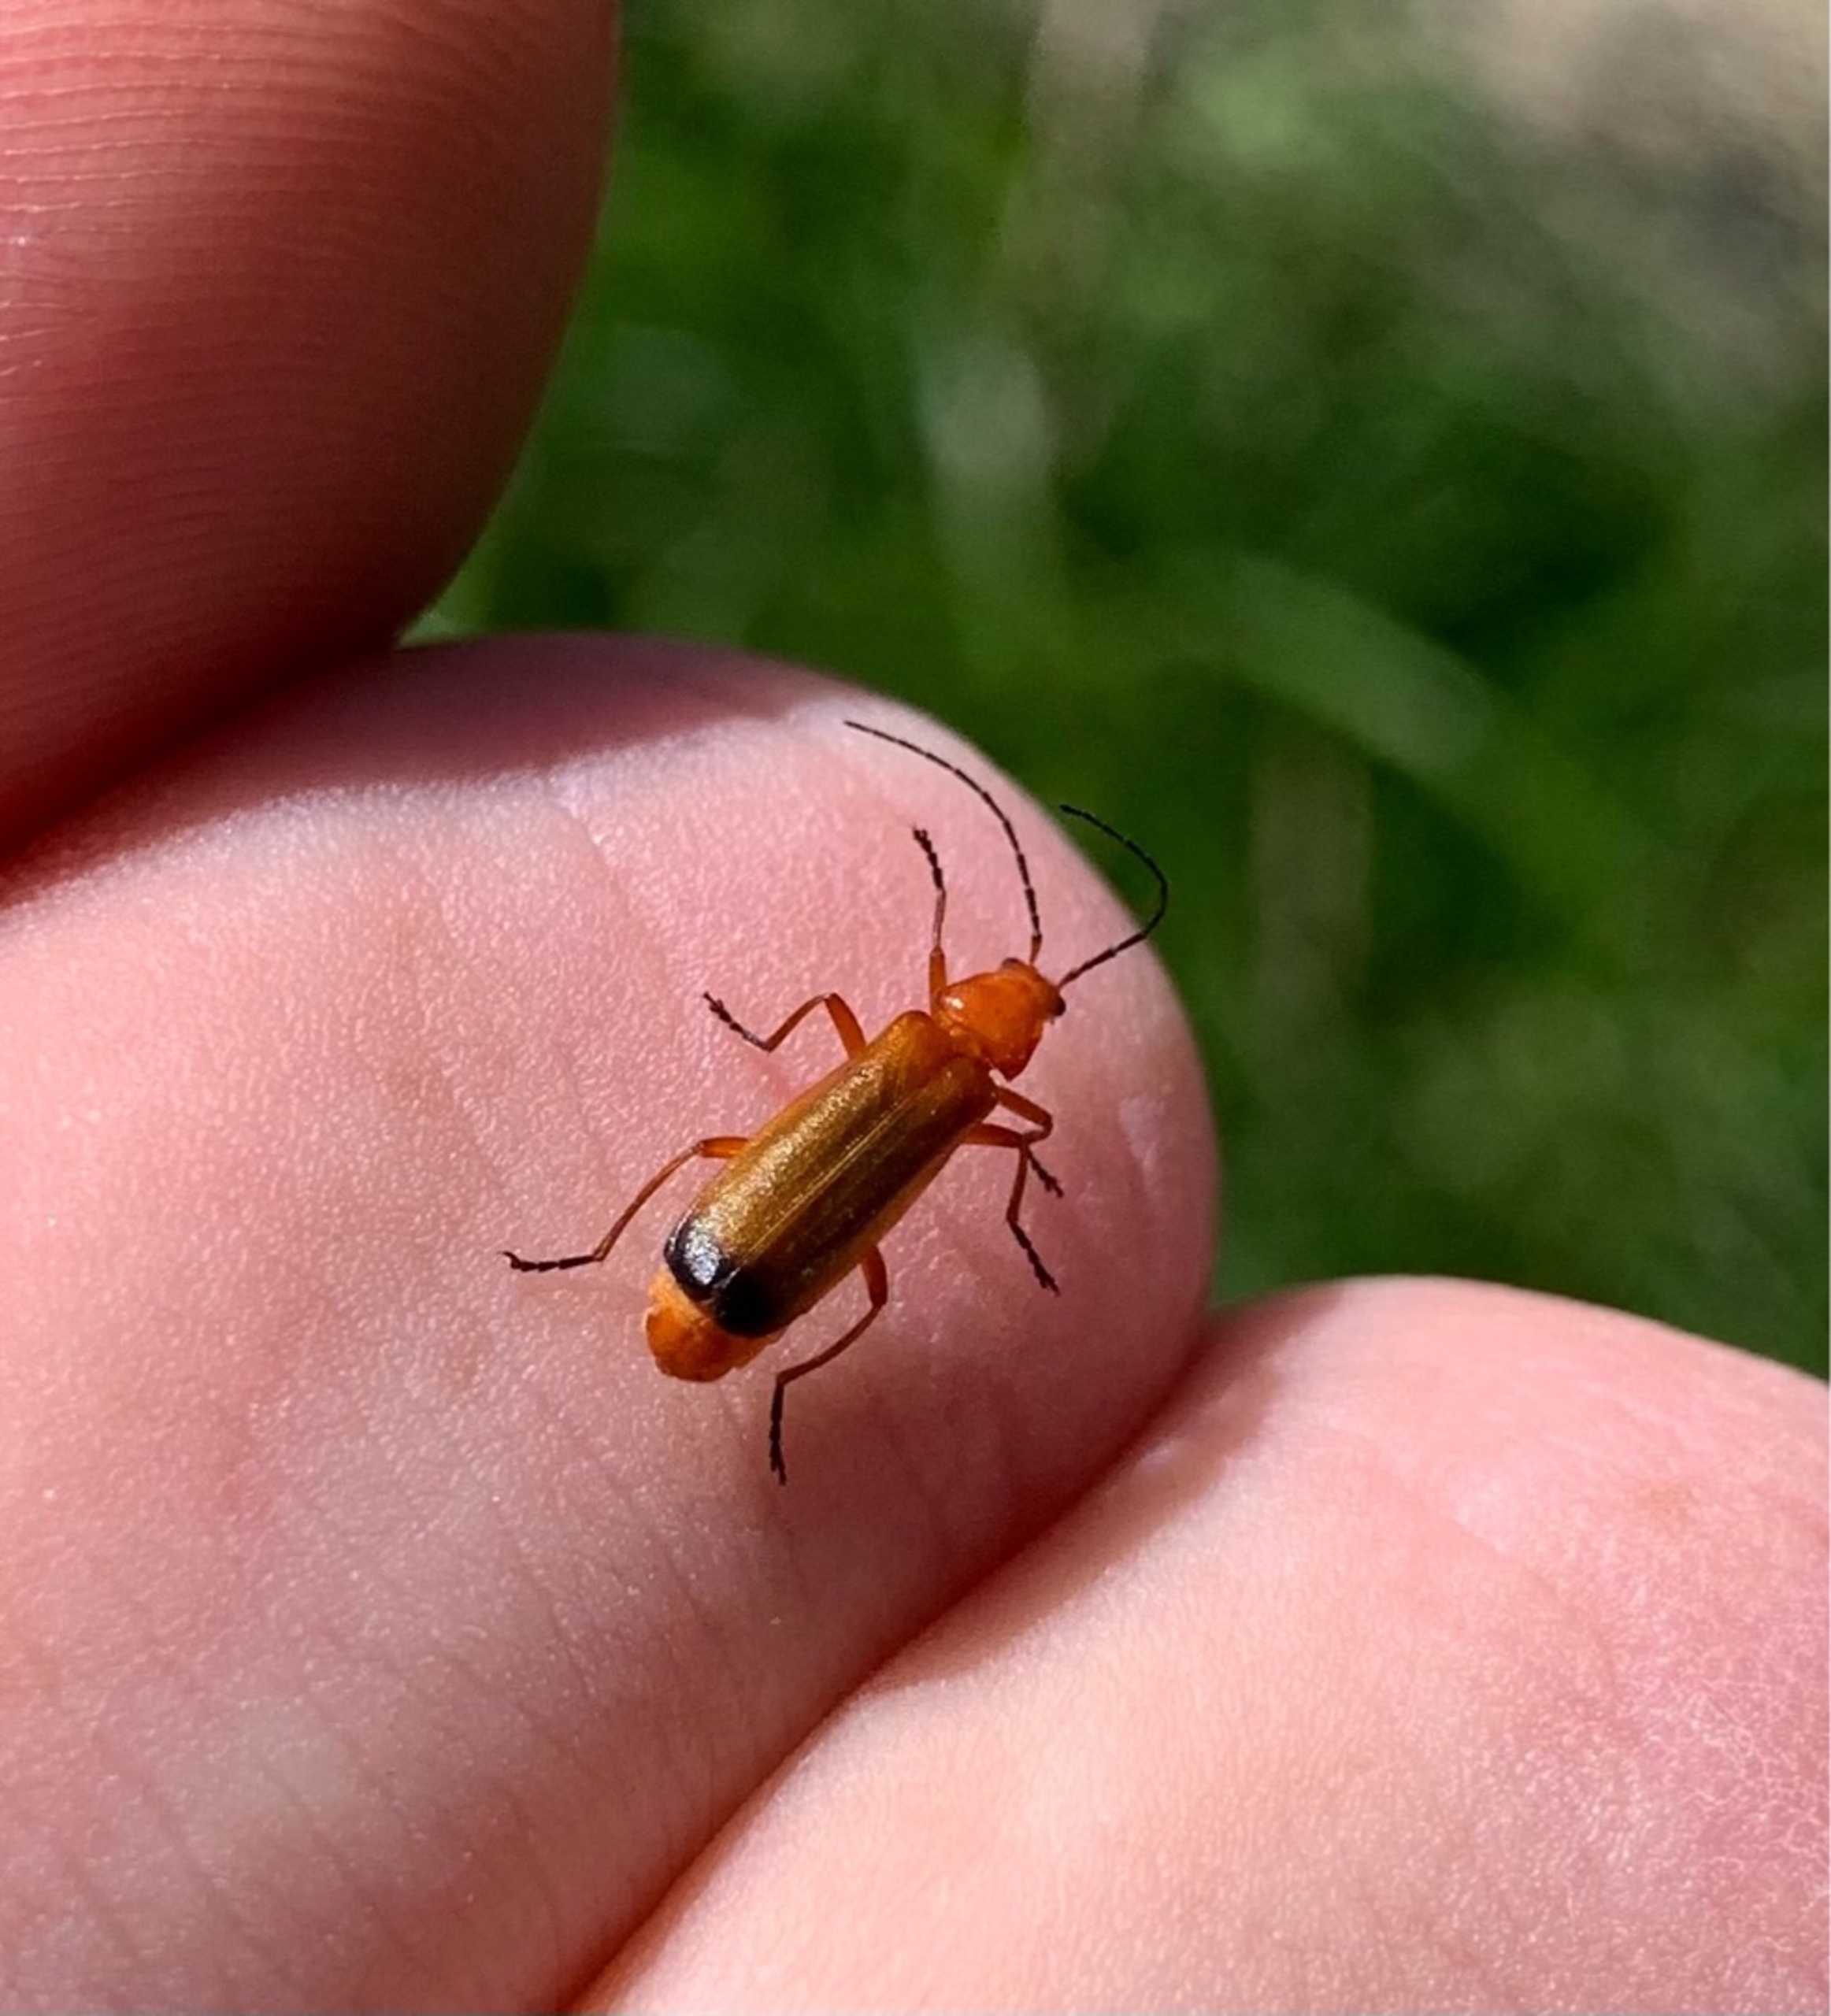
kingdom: Animalia
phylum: Arthropoda
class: Insecta
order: Coleoptera
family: Cantharidae
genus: Rhagonycha
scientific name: Rhagonycha fulva
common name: Præstebille
